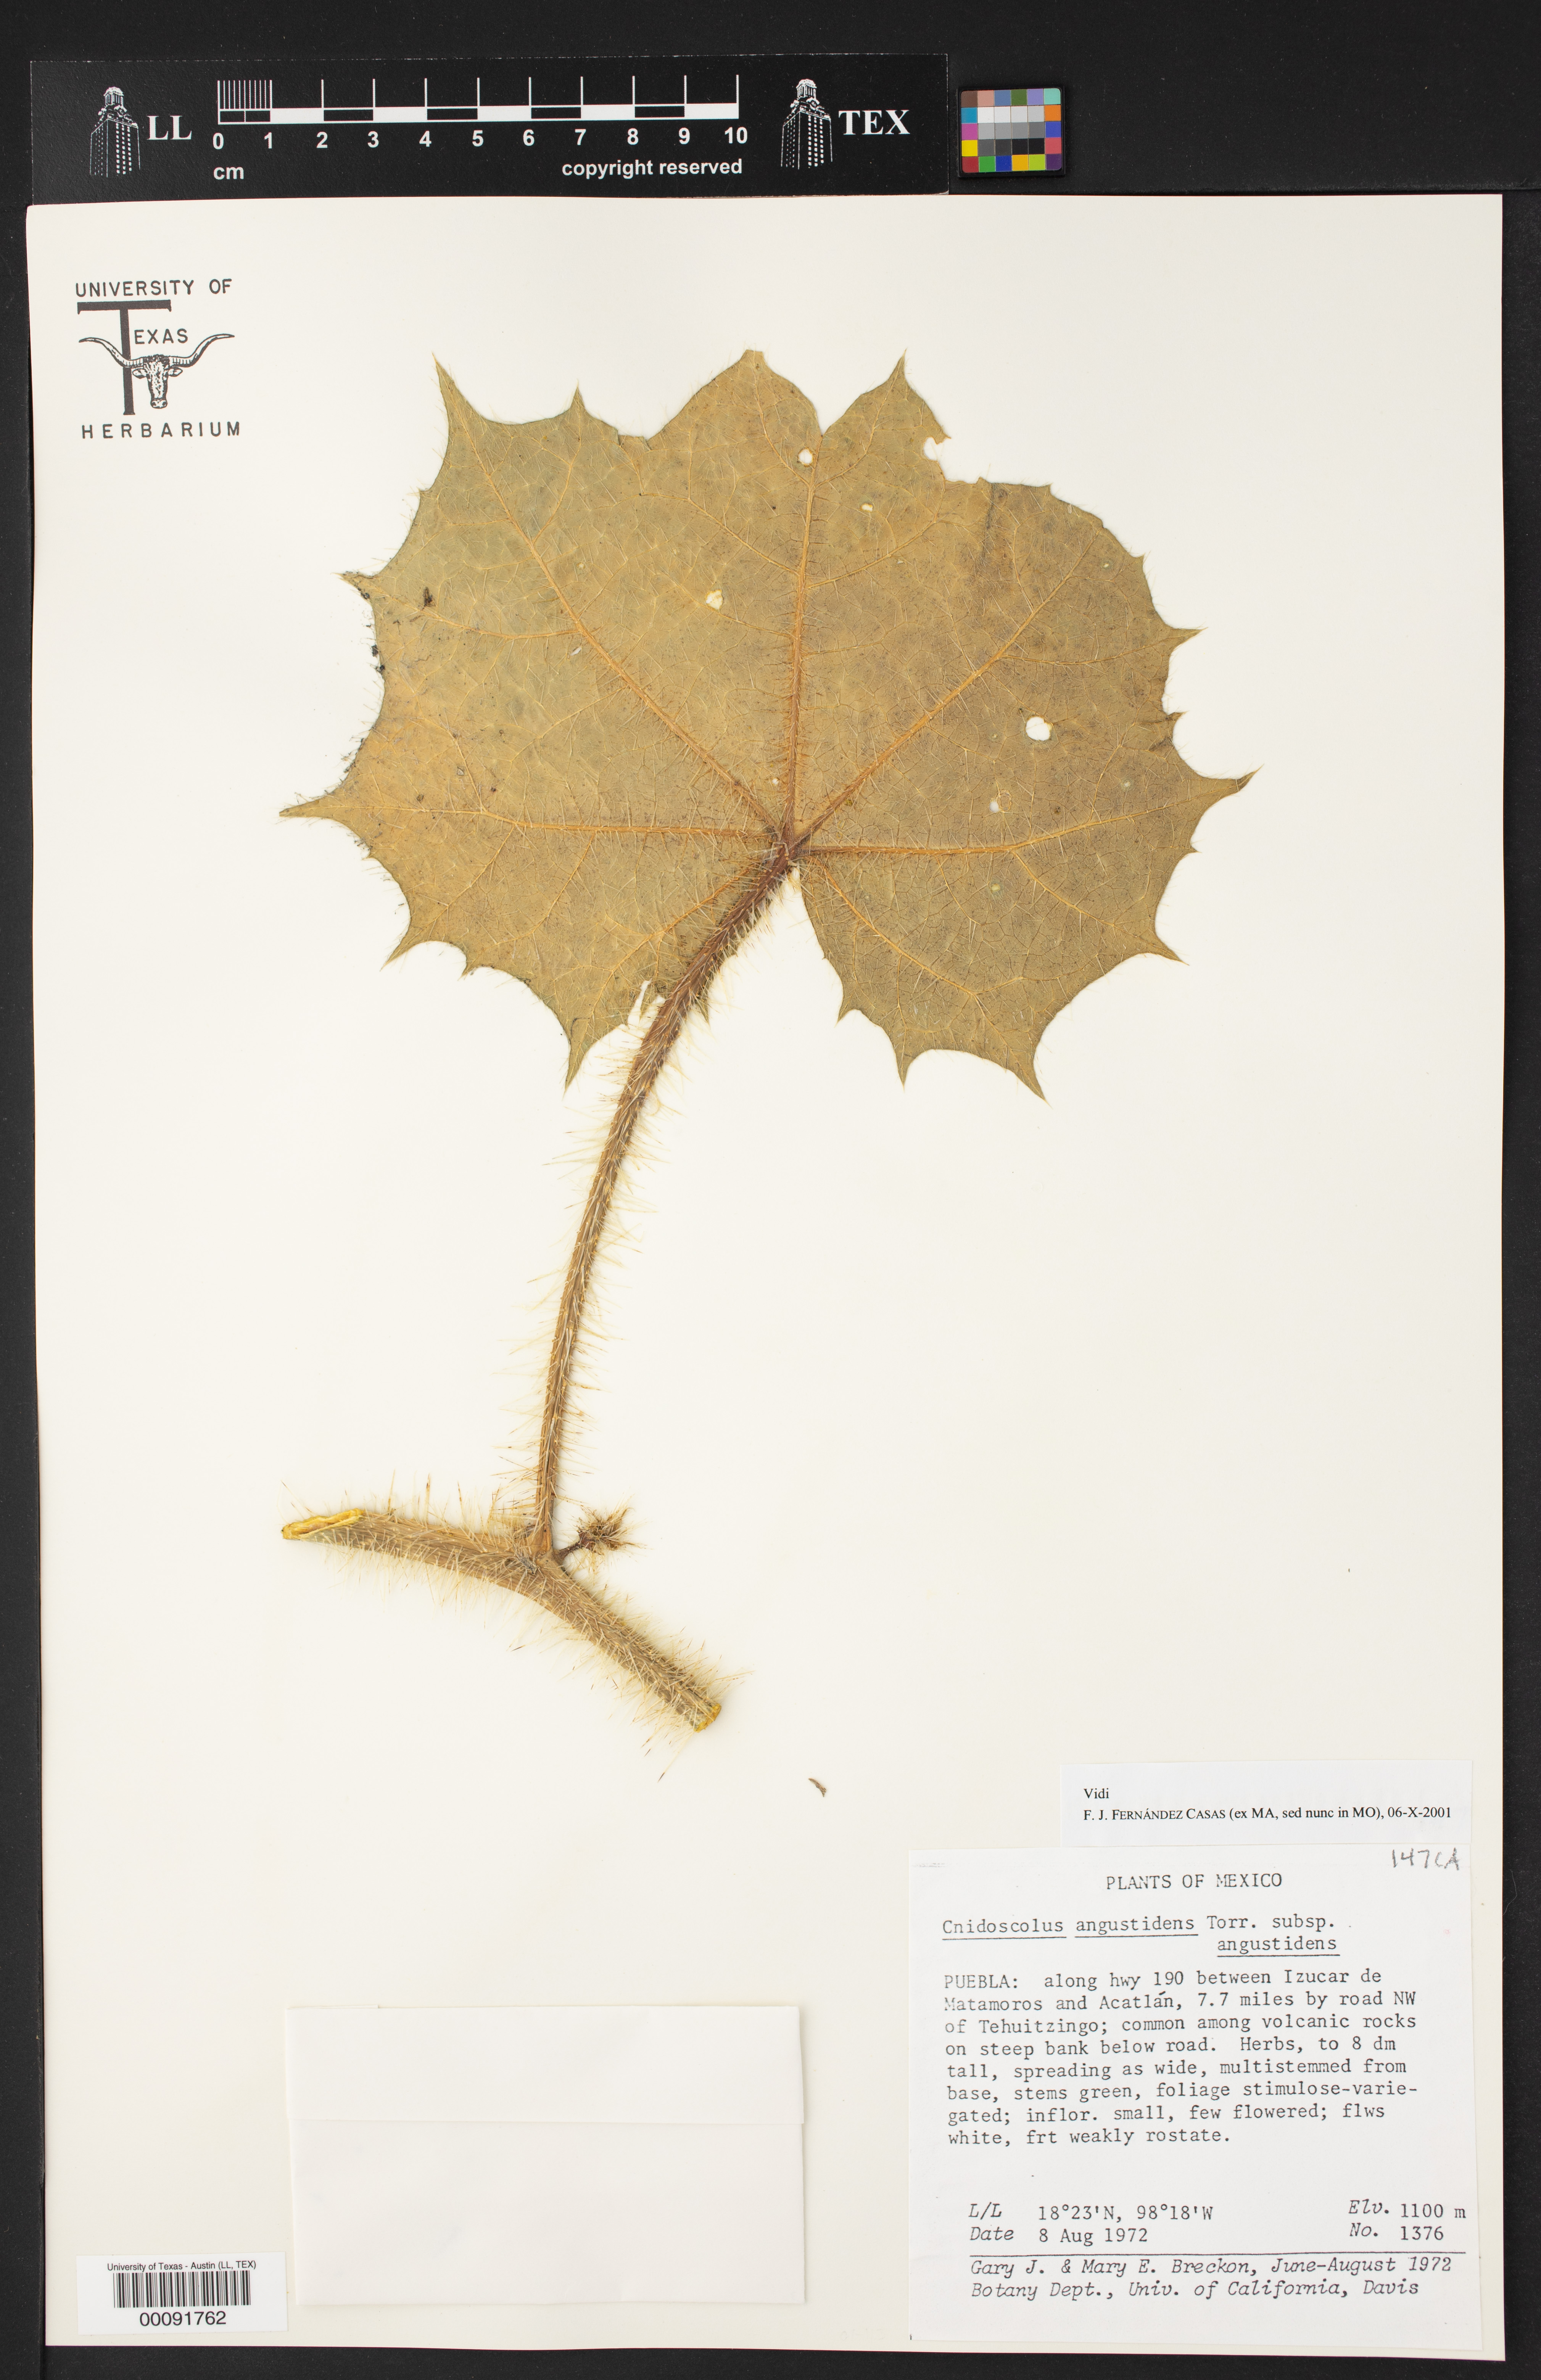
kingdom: Plantae
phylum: Tracheophyta
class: Magnoliopsida
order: Malpighiales
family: Euphorbiaceae
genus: Cnidoscolus
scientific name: Cnidoscolus angustidens
